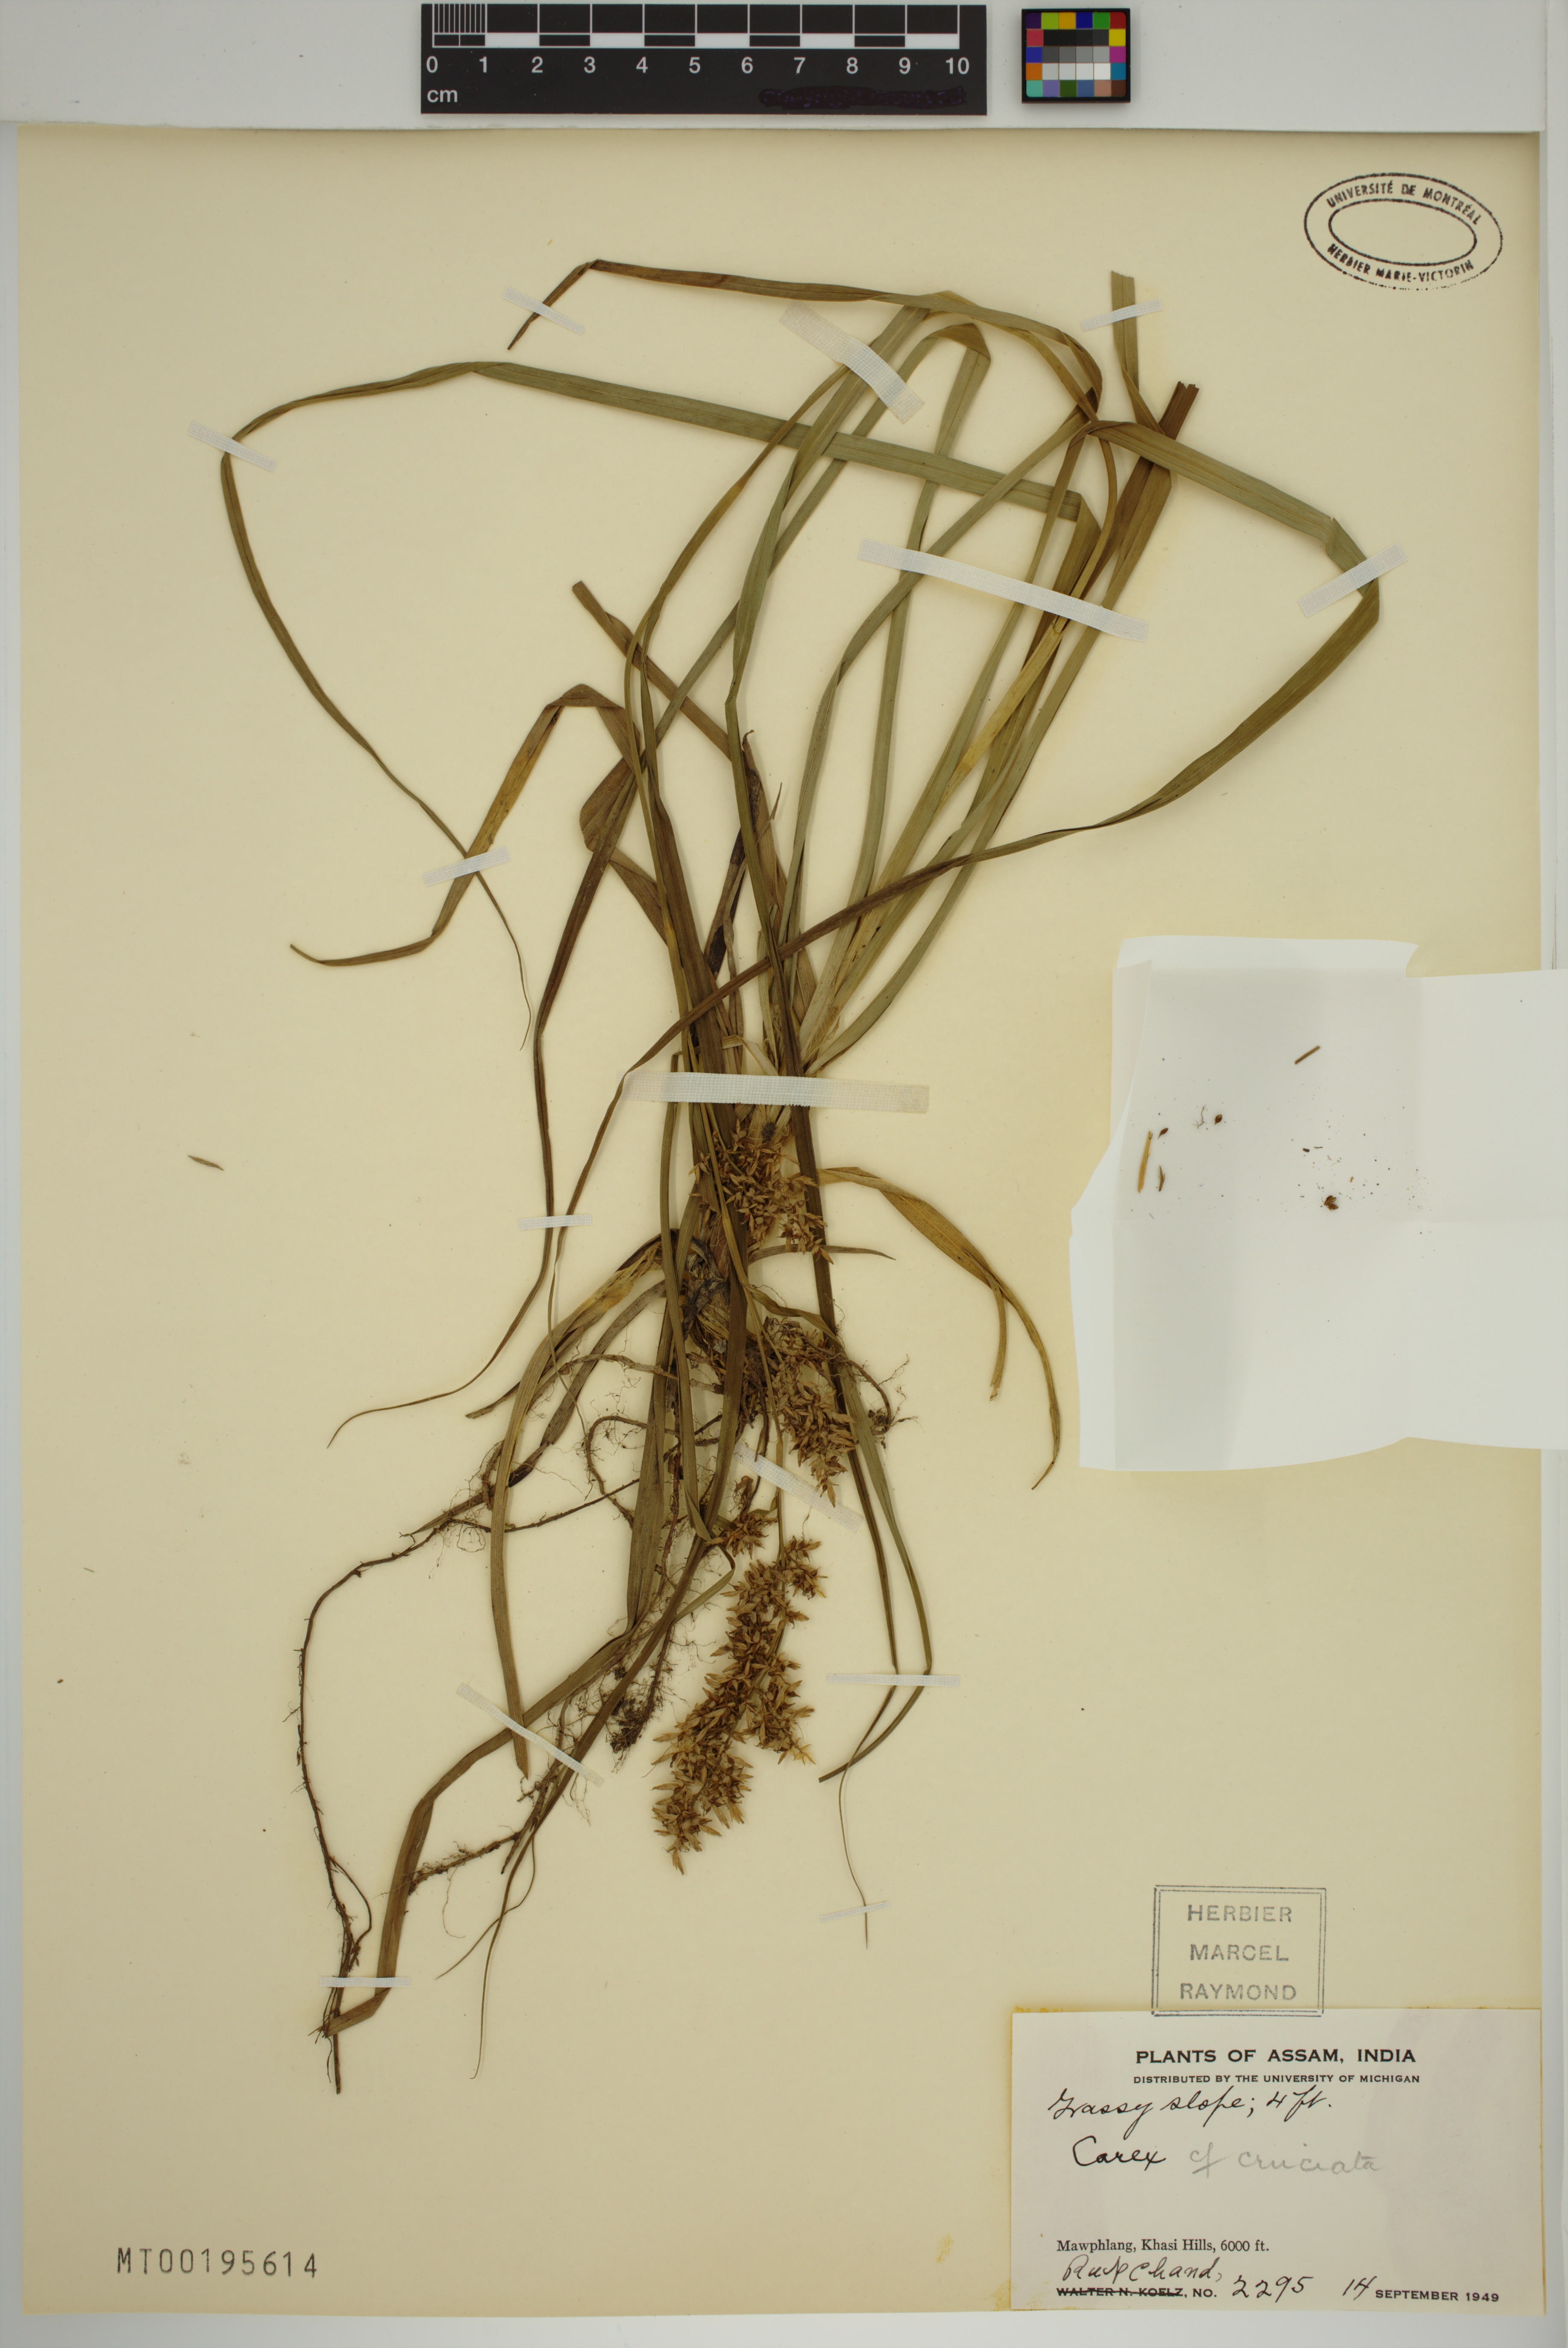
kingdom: Plantae
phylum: Tracheophyta
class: Liliopsida
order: Poales
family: Cyperaceae
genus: Carex
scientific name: Carex cruciata
